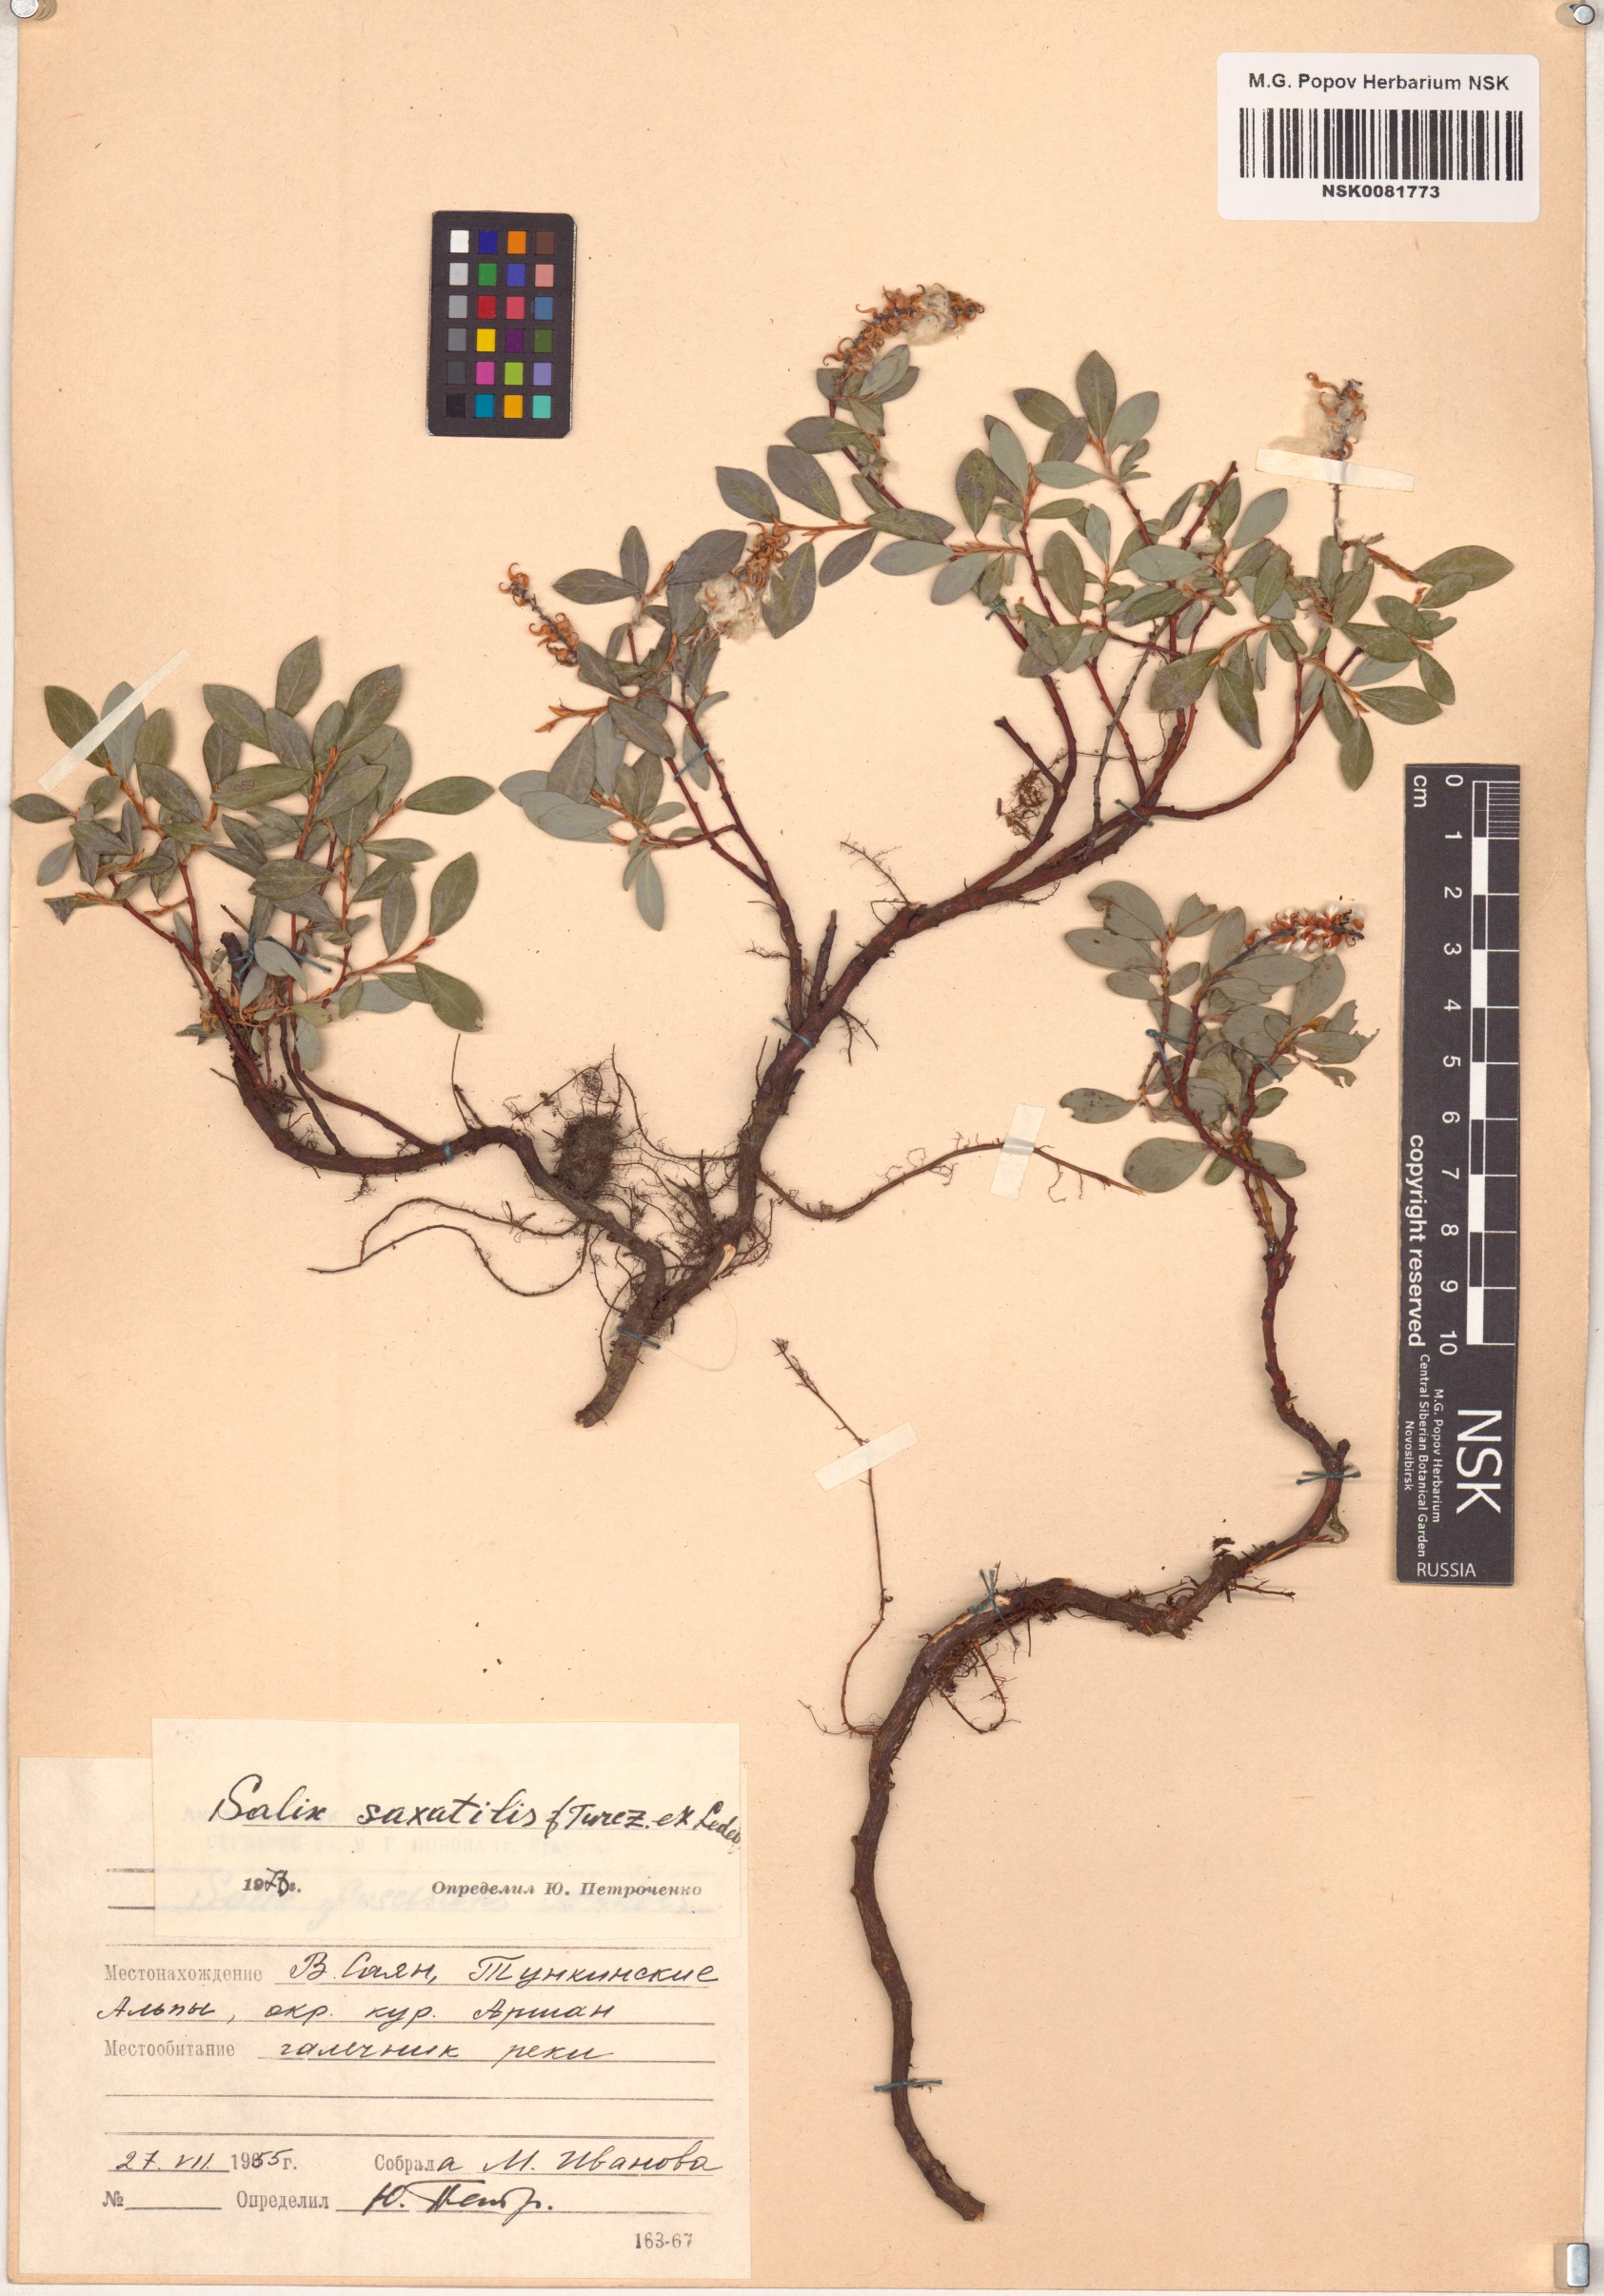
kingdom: Plantae
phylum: Tracheophyta
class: Magnoliopsida
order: Malpighiales
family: Salicaceae
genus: Salix
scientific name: Salix saxatilis
